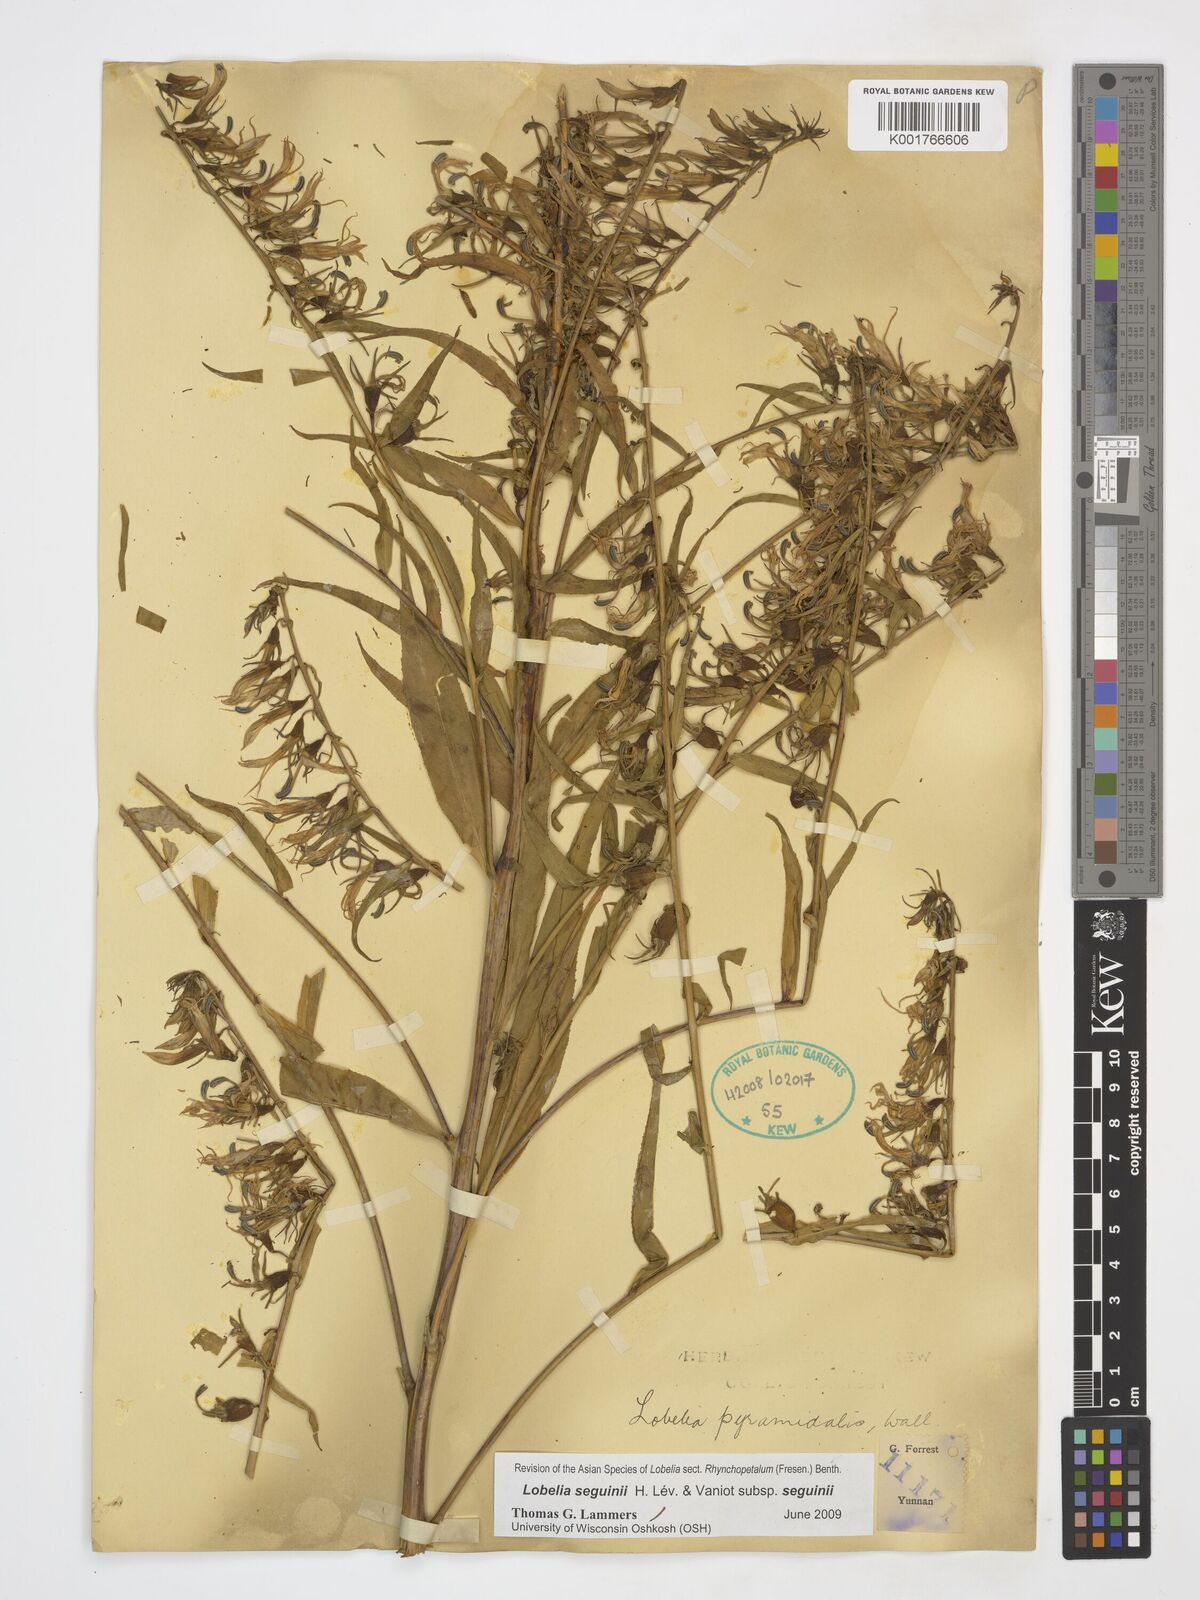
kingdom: Plantae
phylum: Tracheophyta
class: Magnoliopsida
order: Asterales
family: Campanulaceae
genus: Lobelia
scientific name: Lobelia seguinii
